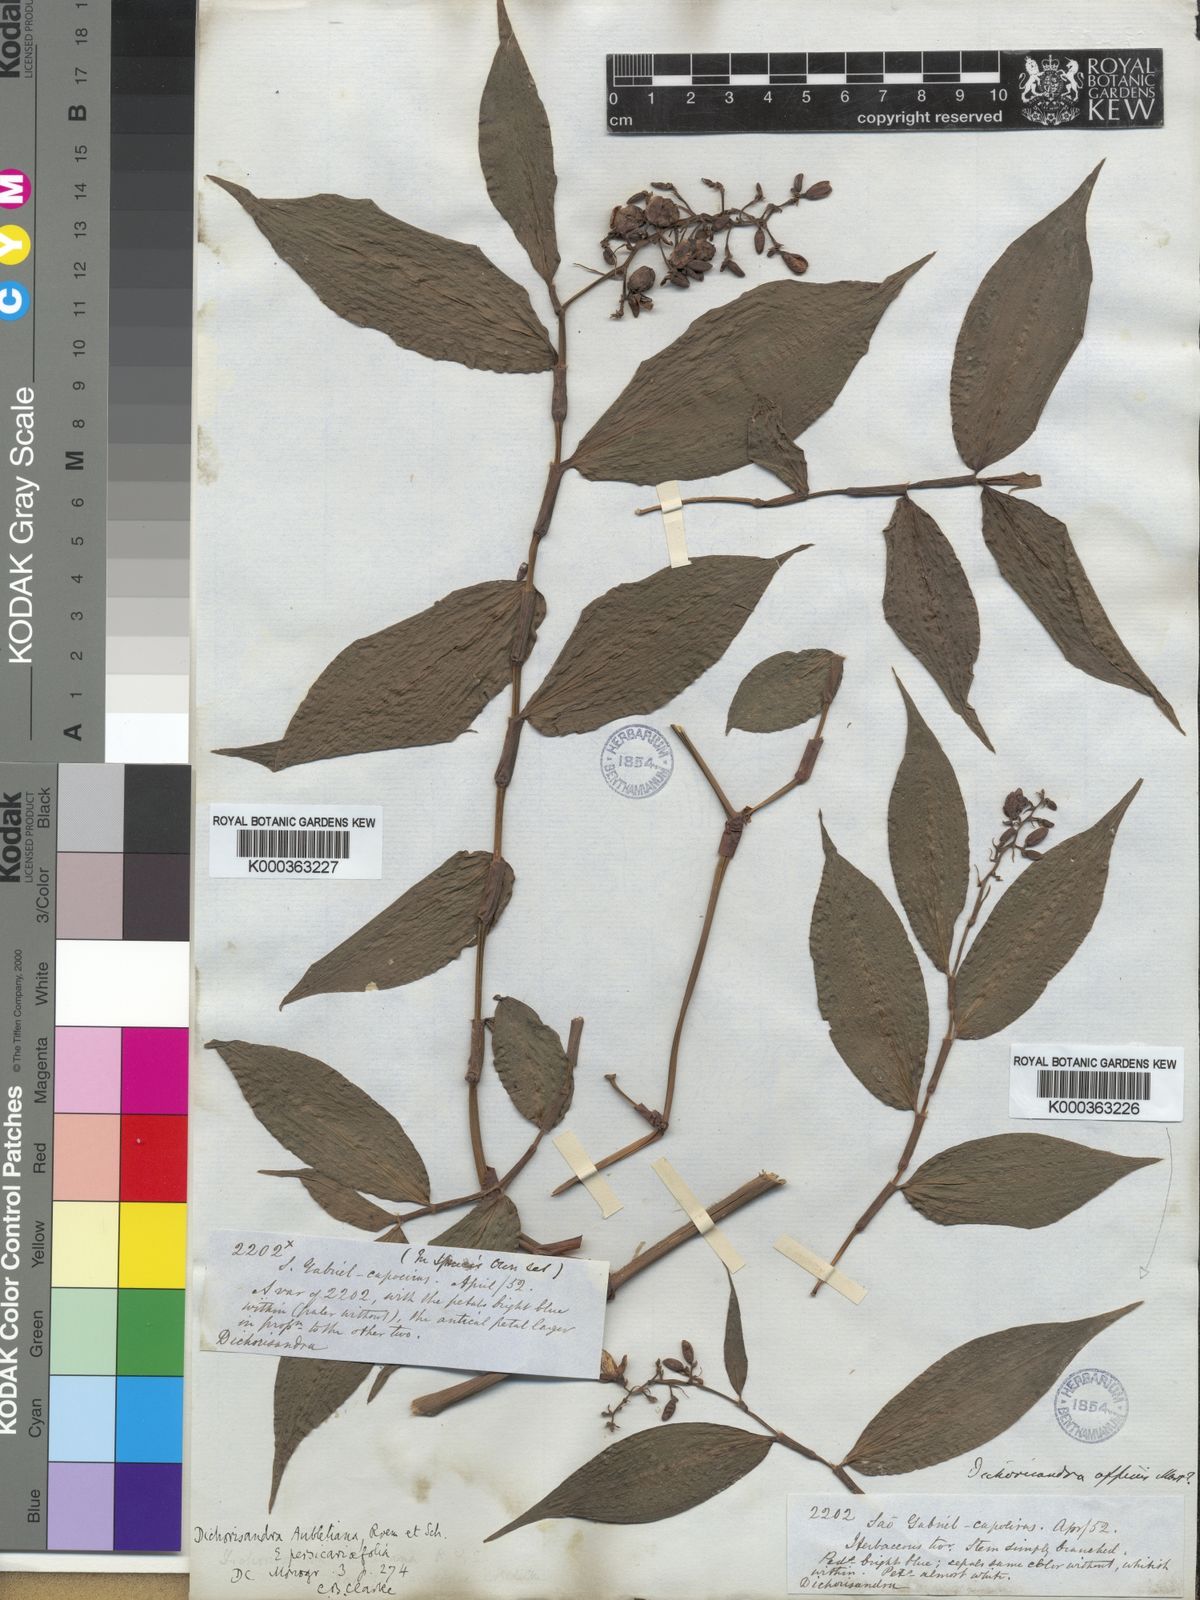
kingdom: Plantae
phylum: Tracheophyta
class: Liliopsida
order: Commelinales
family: Commelinaceae
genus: Dichorisandra
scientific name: Dichorisandra hexandra
